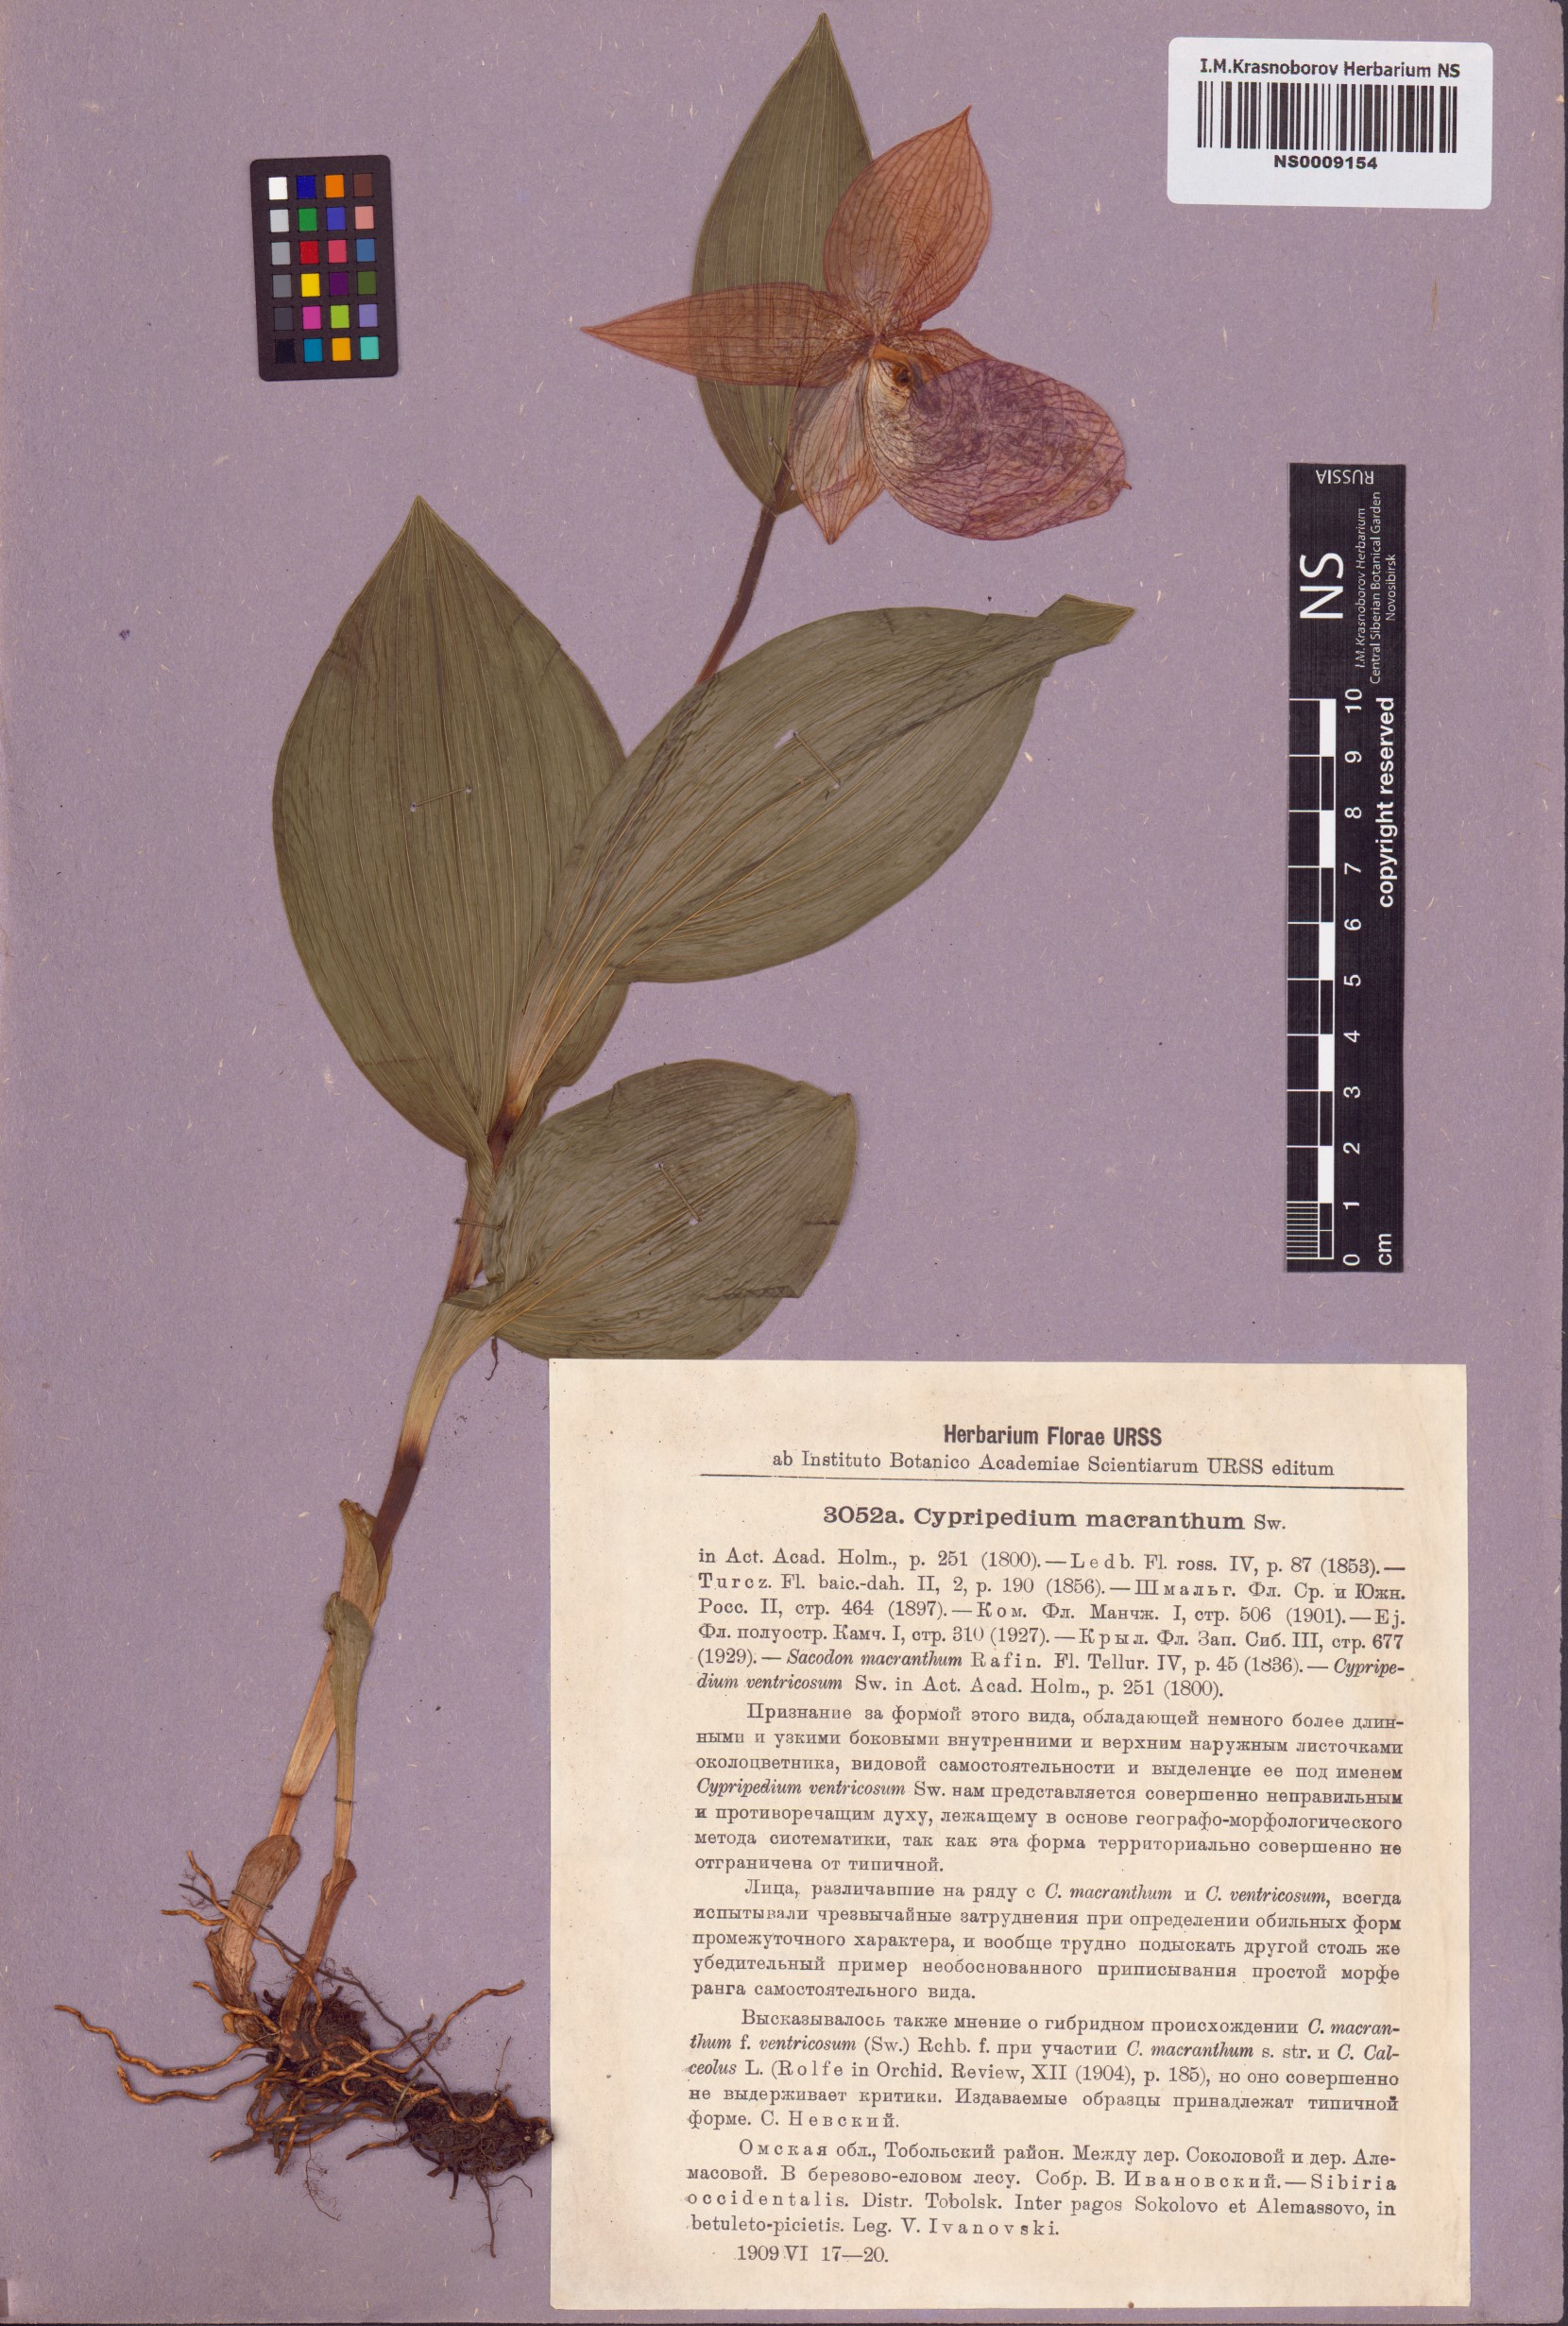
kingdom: Plantae
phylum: Tracheophyta
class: Liliopsida
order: Asparagales
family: Orchidaceae
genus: Cypripedium
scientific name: Cypripedium macranthos
